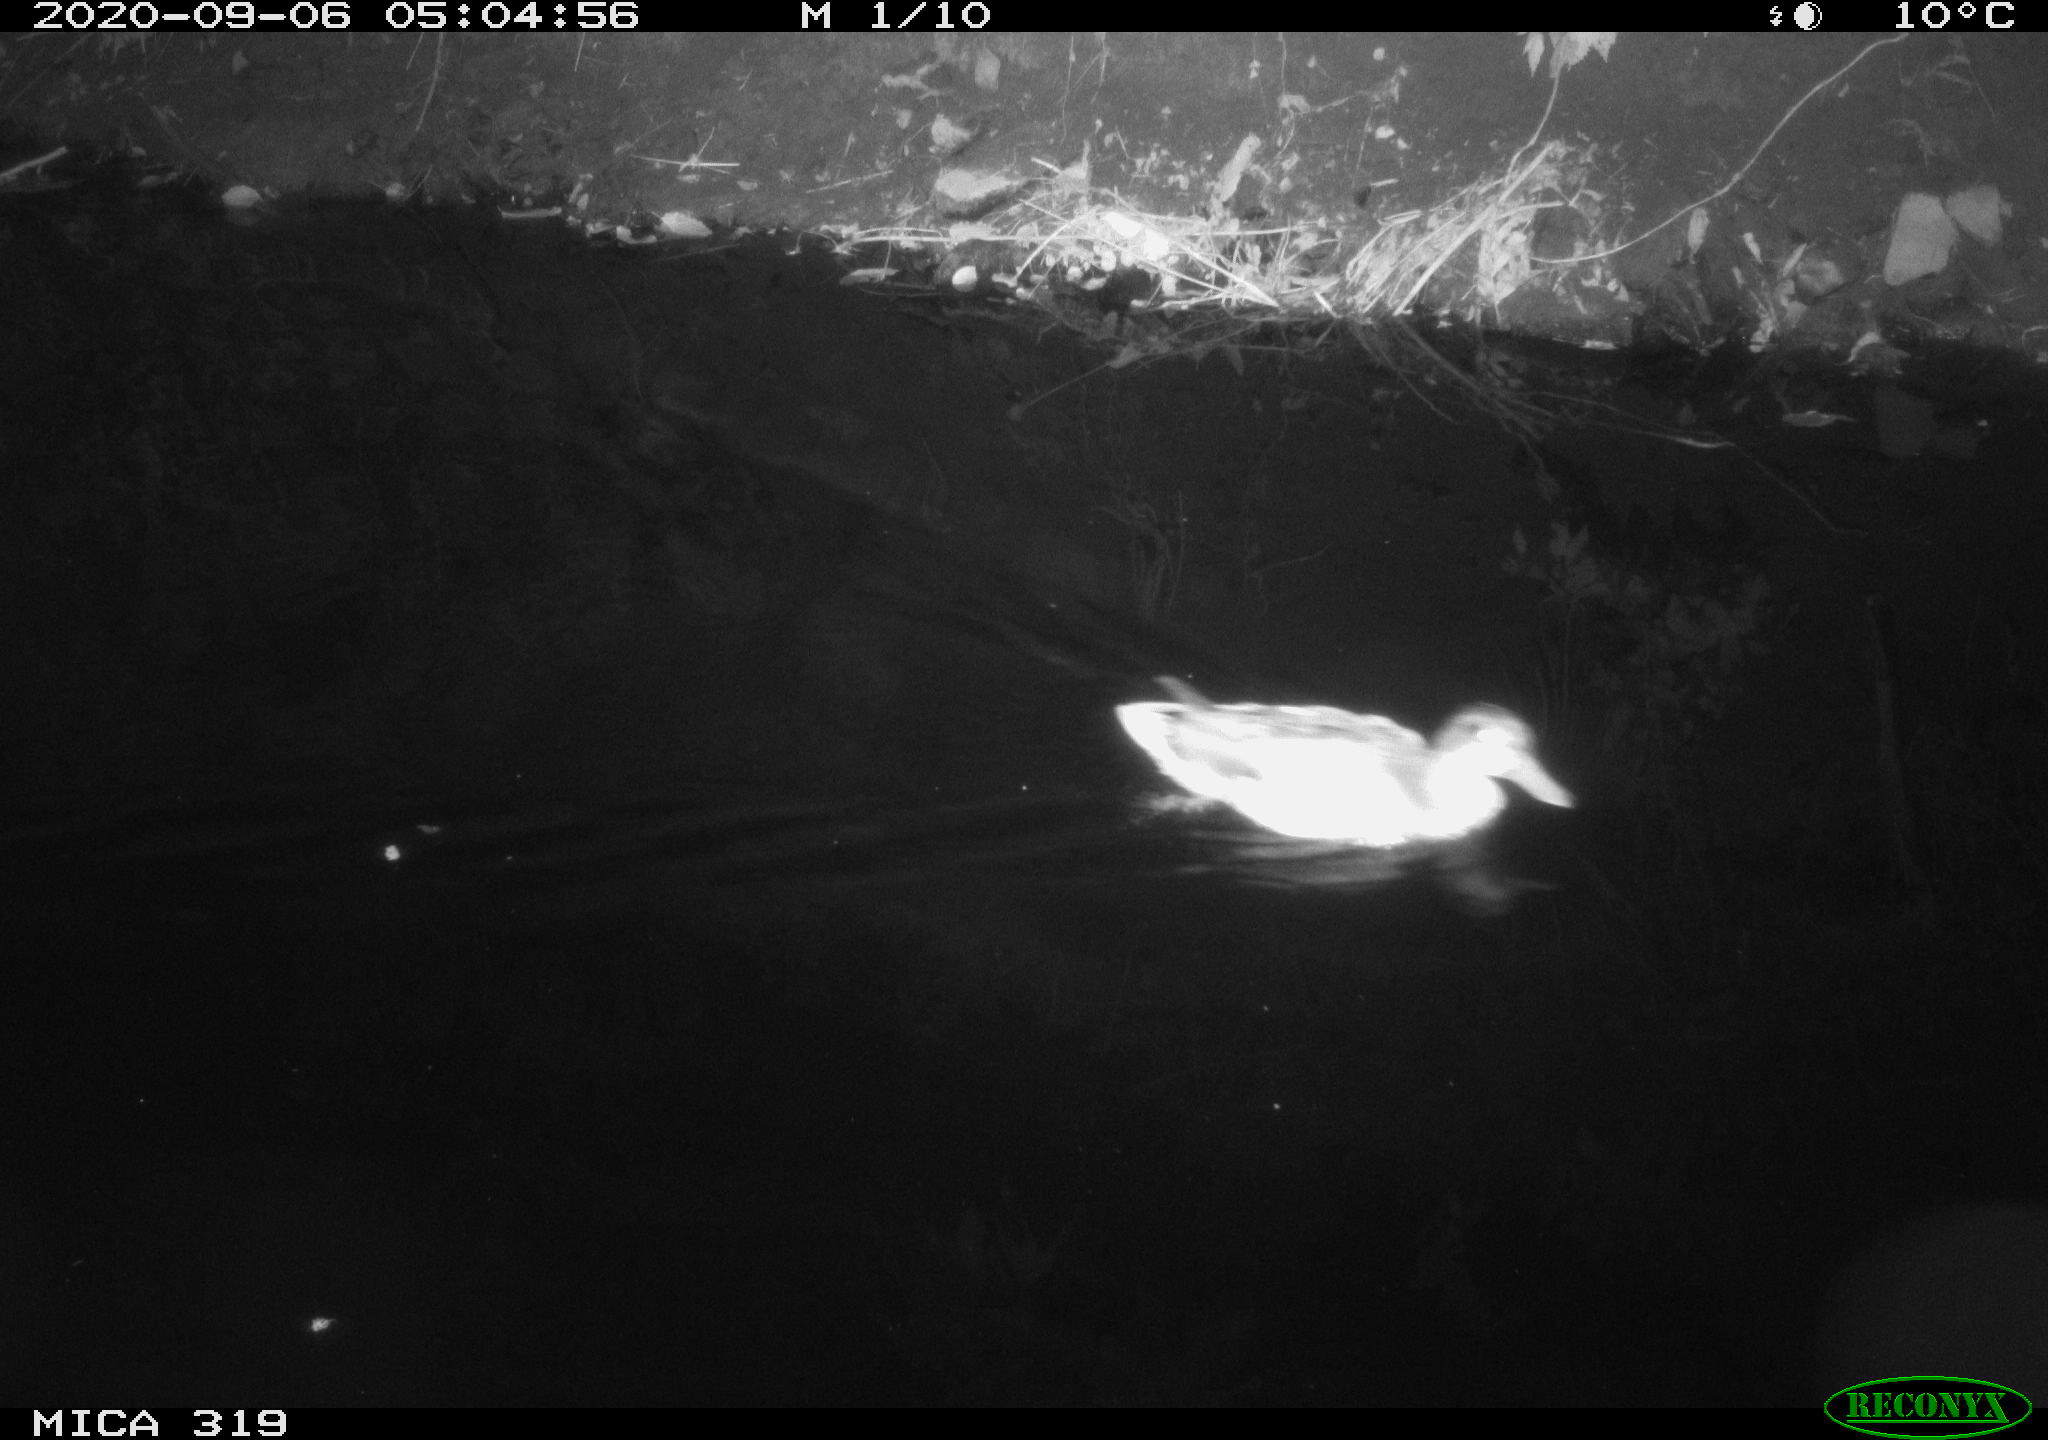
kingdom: Animalia
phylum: Chordata
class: Aves
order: Anseriformes
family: Anatidae
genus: Anas
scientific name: Anas platyrhynchos
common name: Mallard
